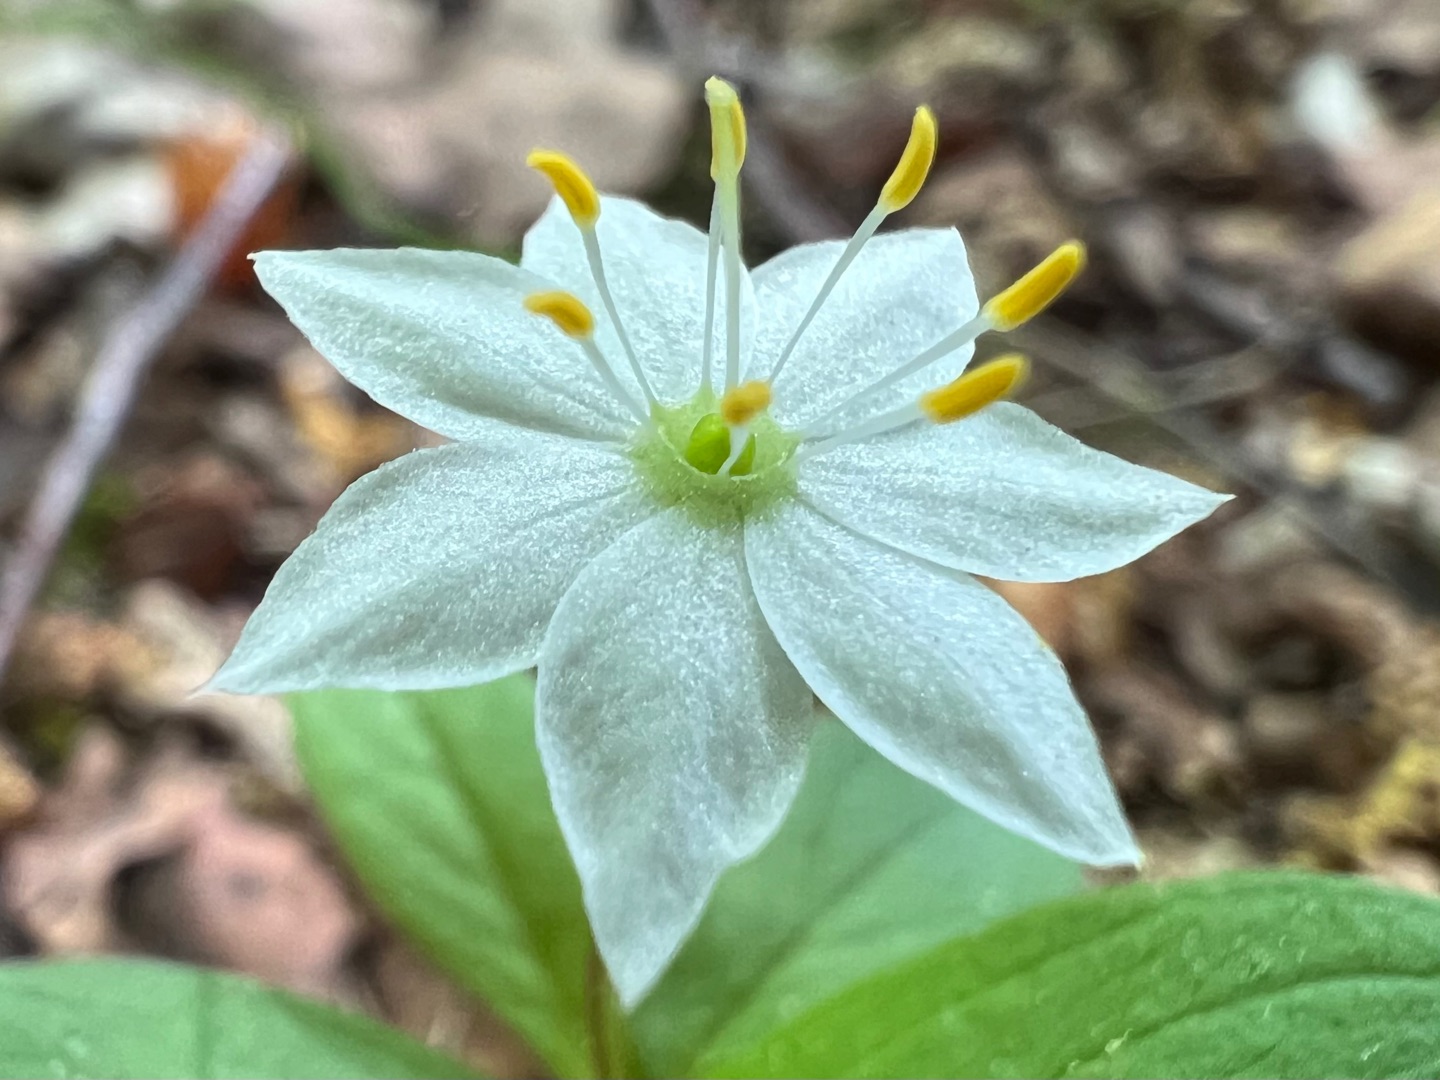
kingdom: Plantae
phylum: Tracheophyta
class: Magnoliopsida
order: Ericales
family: Primulaceae
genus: Lysimachia
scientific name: Lysimachia europaea
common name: Skovstjerne
